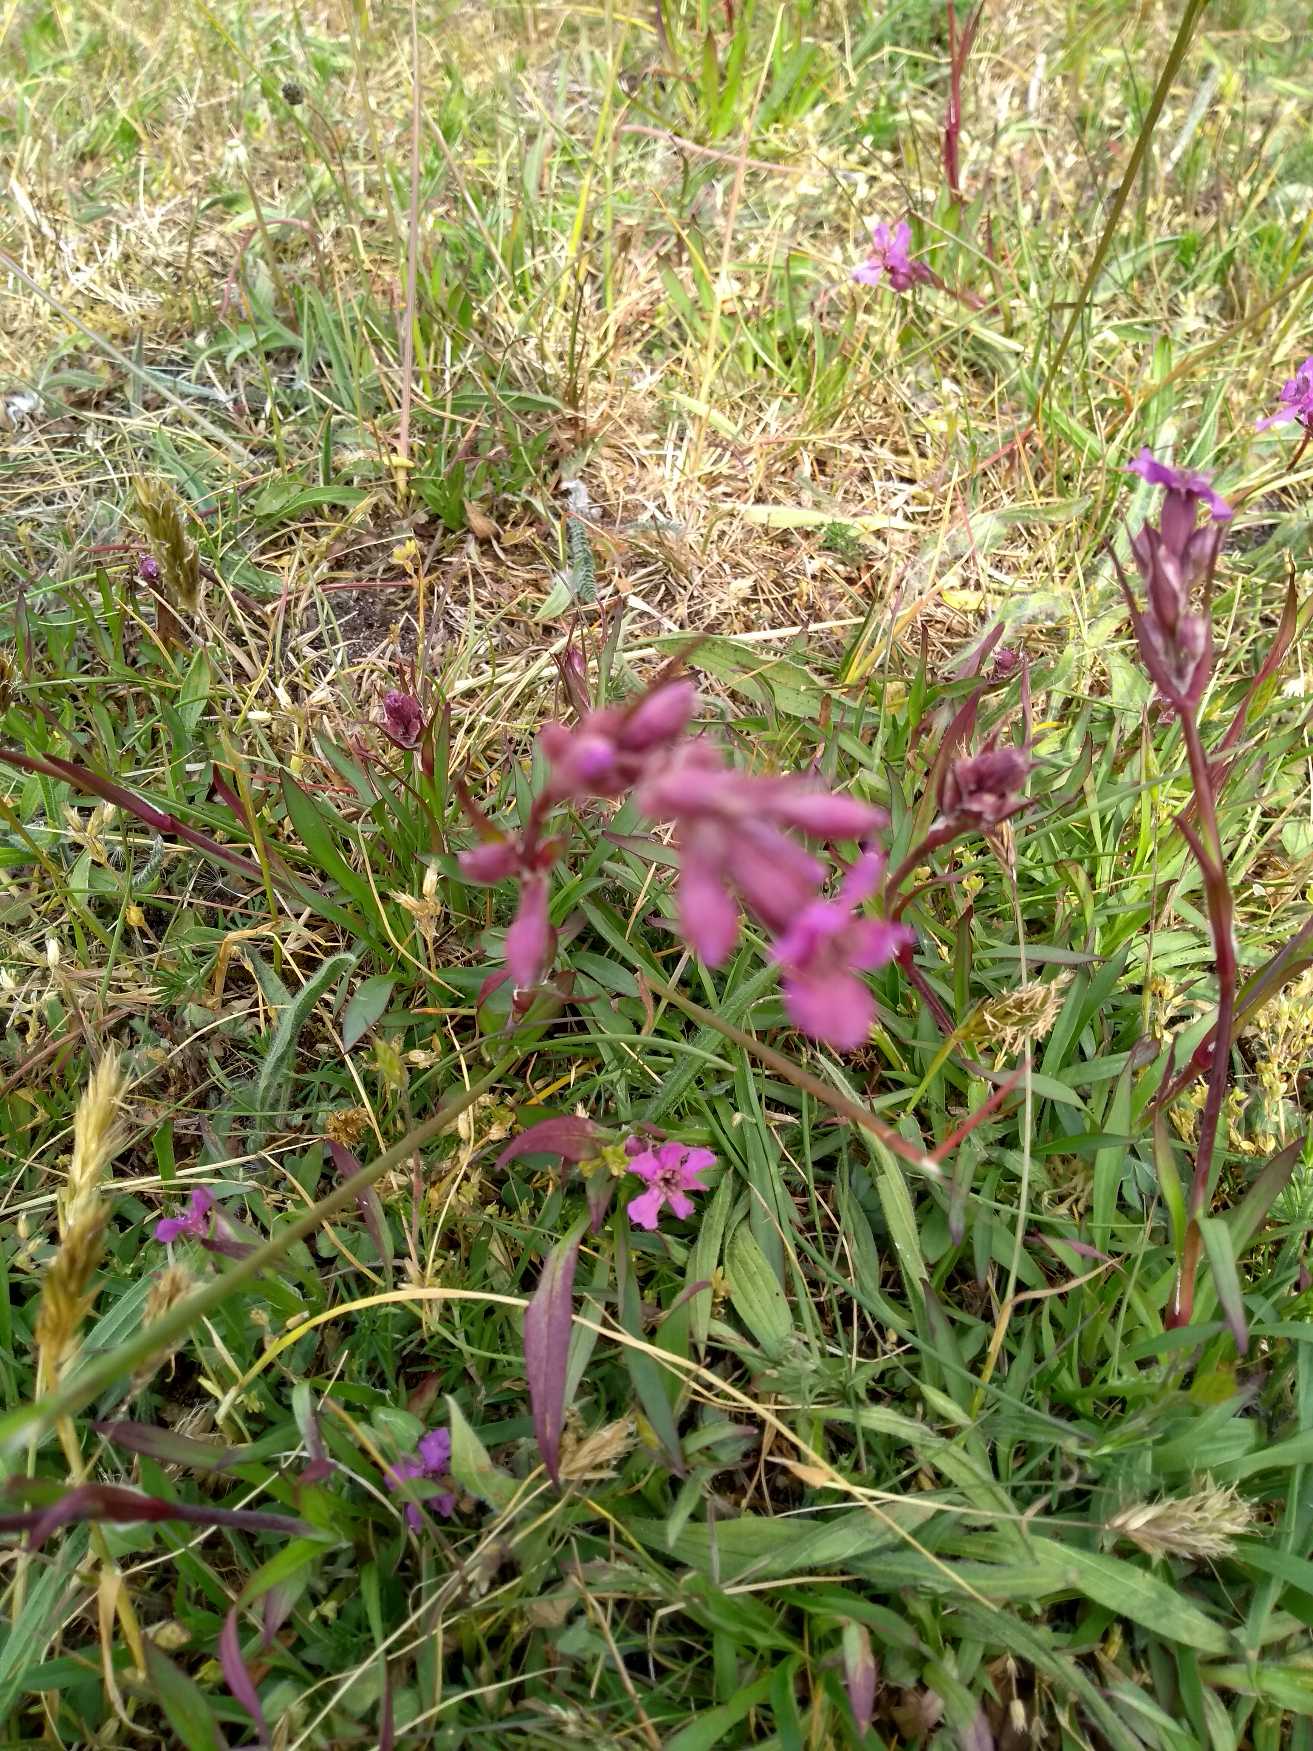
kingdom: Plantae
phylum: Tracheophyta
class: Magnoliopsida
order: Caryophyllales
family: Caryophyllaceae
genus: Viscaria
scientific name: Viscaria vulgaris
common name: Tjærenellike
